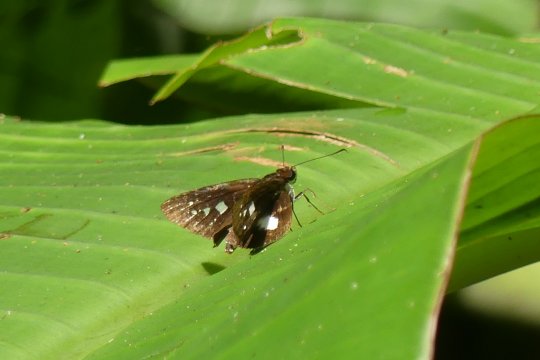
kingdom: Animalia
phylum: Arthropoda
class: Insecta
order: Lepidoptera
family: Hesperiidae
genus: Vettius
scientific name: Vettius lafrenaye
